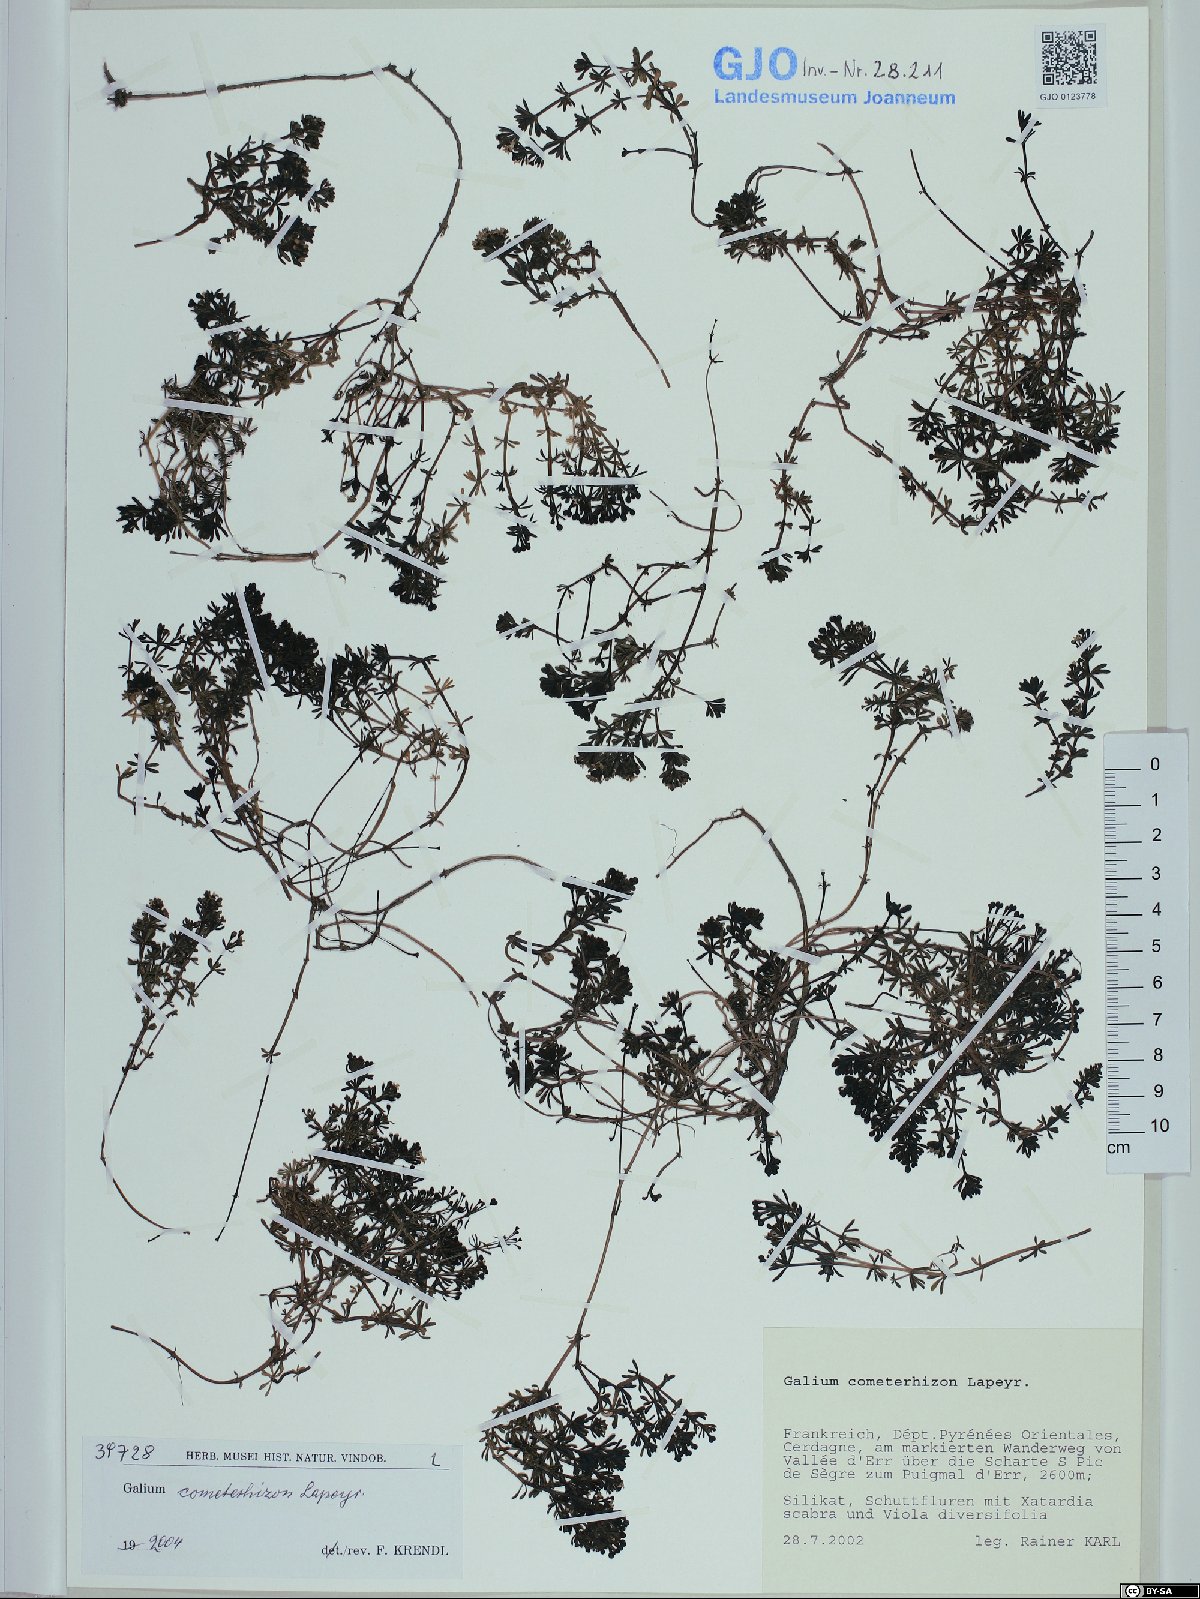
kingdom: Plantae
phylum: Tracheophyta
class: Magnoliopsida
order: Gentianales
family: Rubiaceae
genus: Galium
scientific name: Galium cometerhizon
